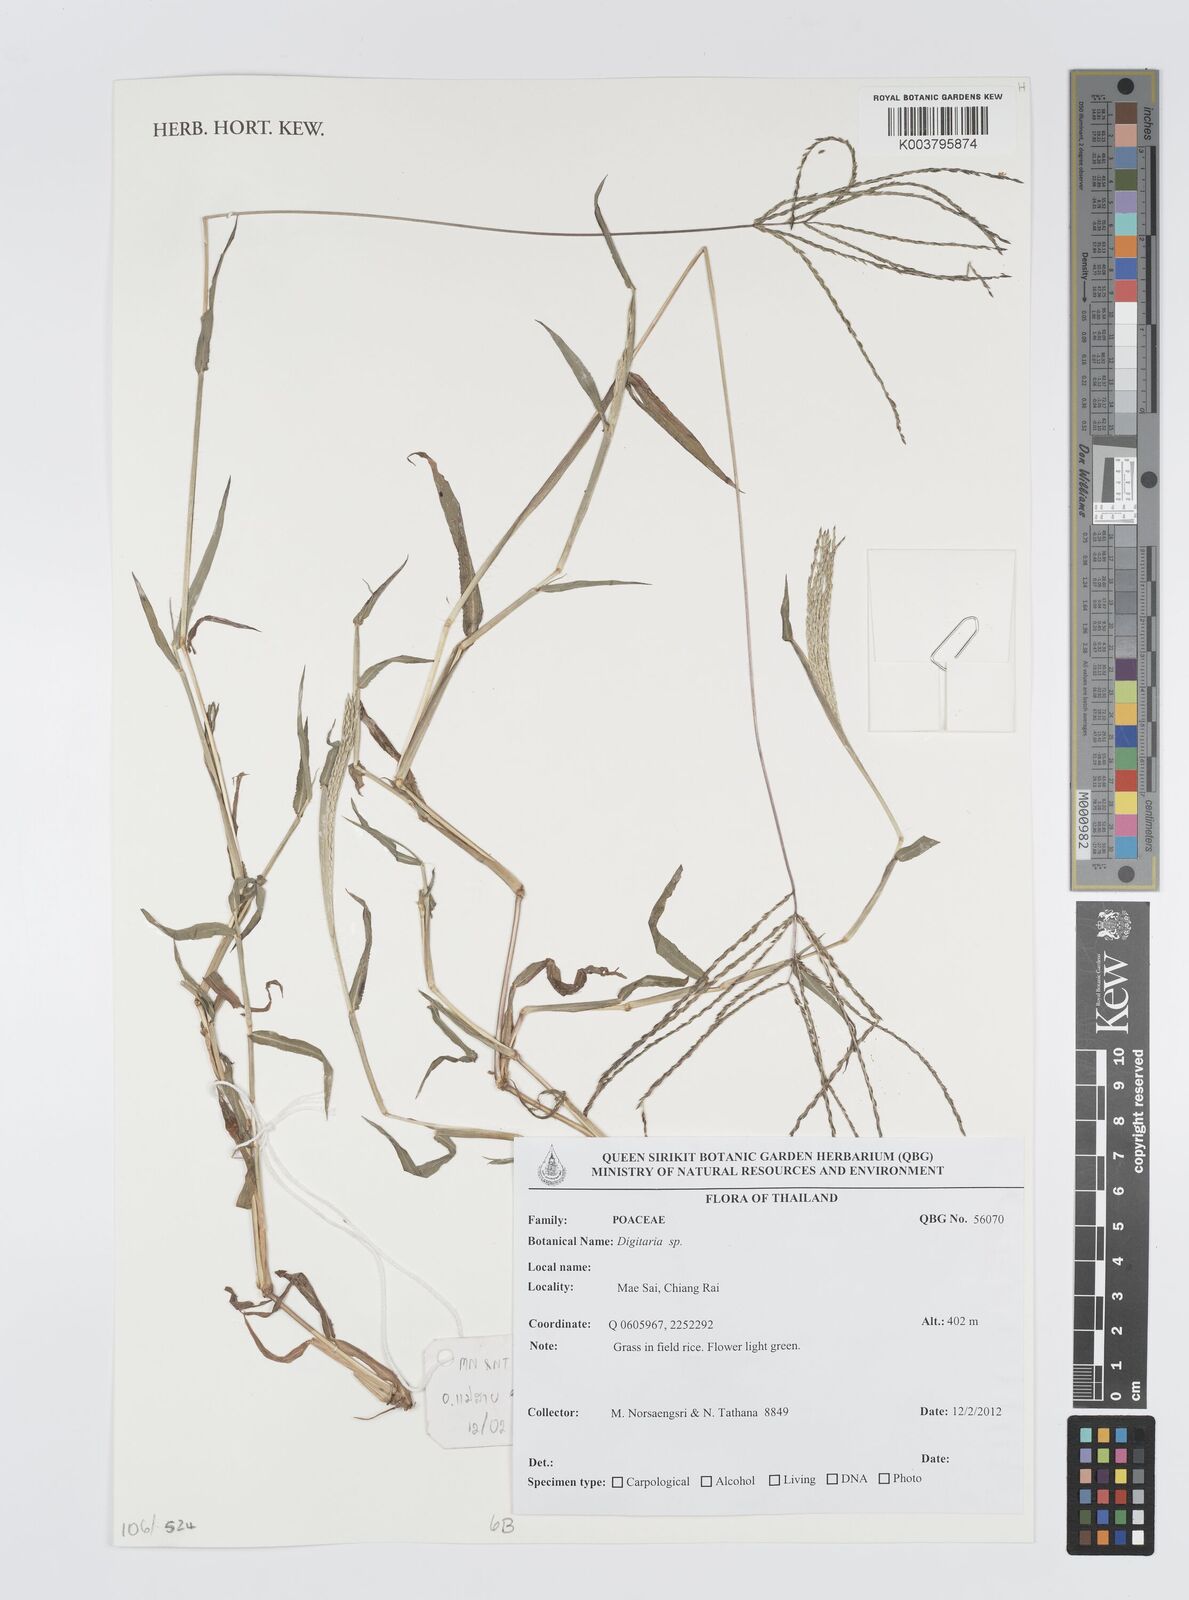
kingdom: Plantae
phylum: Tracheophyta
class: Liliopsida
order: Poales
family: Poaceae
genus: Digitaria
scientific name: Digitaria
